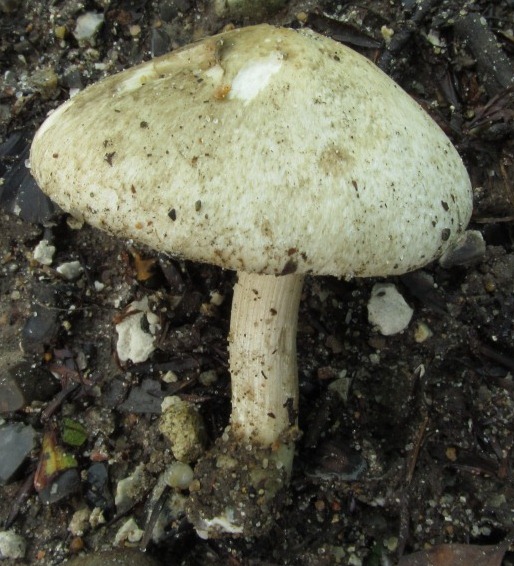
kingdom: Fungi
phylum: Basidiomycota
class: Agaricomycetes
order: Agaricales
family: Inocybaceae
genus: Inocybe
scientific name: Inocybe corydalina
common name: grønpuklet trævlhat
